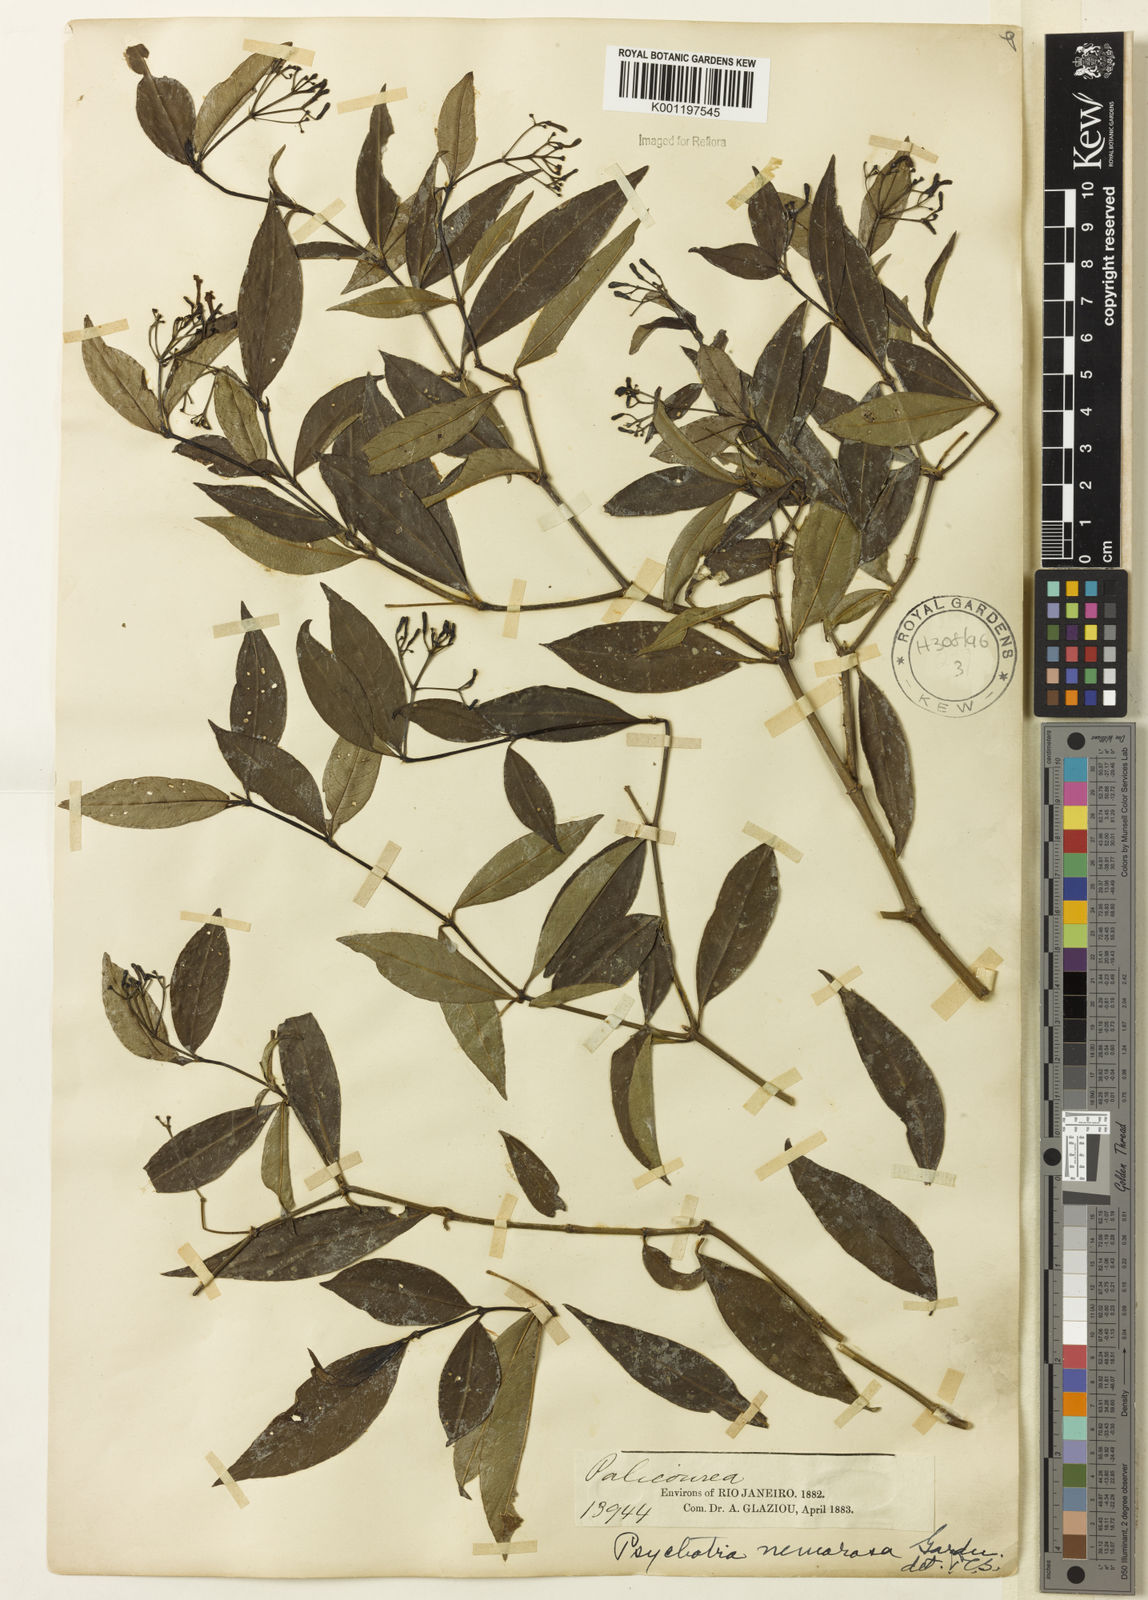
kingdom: Plantae
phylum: Tracheophyta
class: Magnoliopsida
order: Gentianales
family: Rubiaceae
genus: Psychotria
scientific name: Psychotria nemorosa
